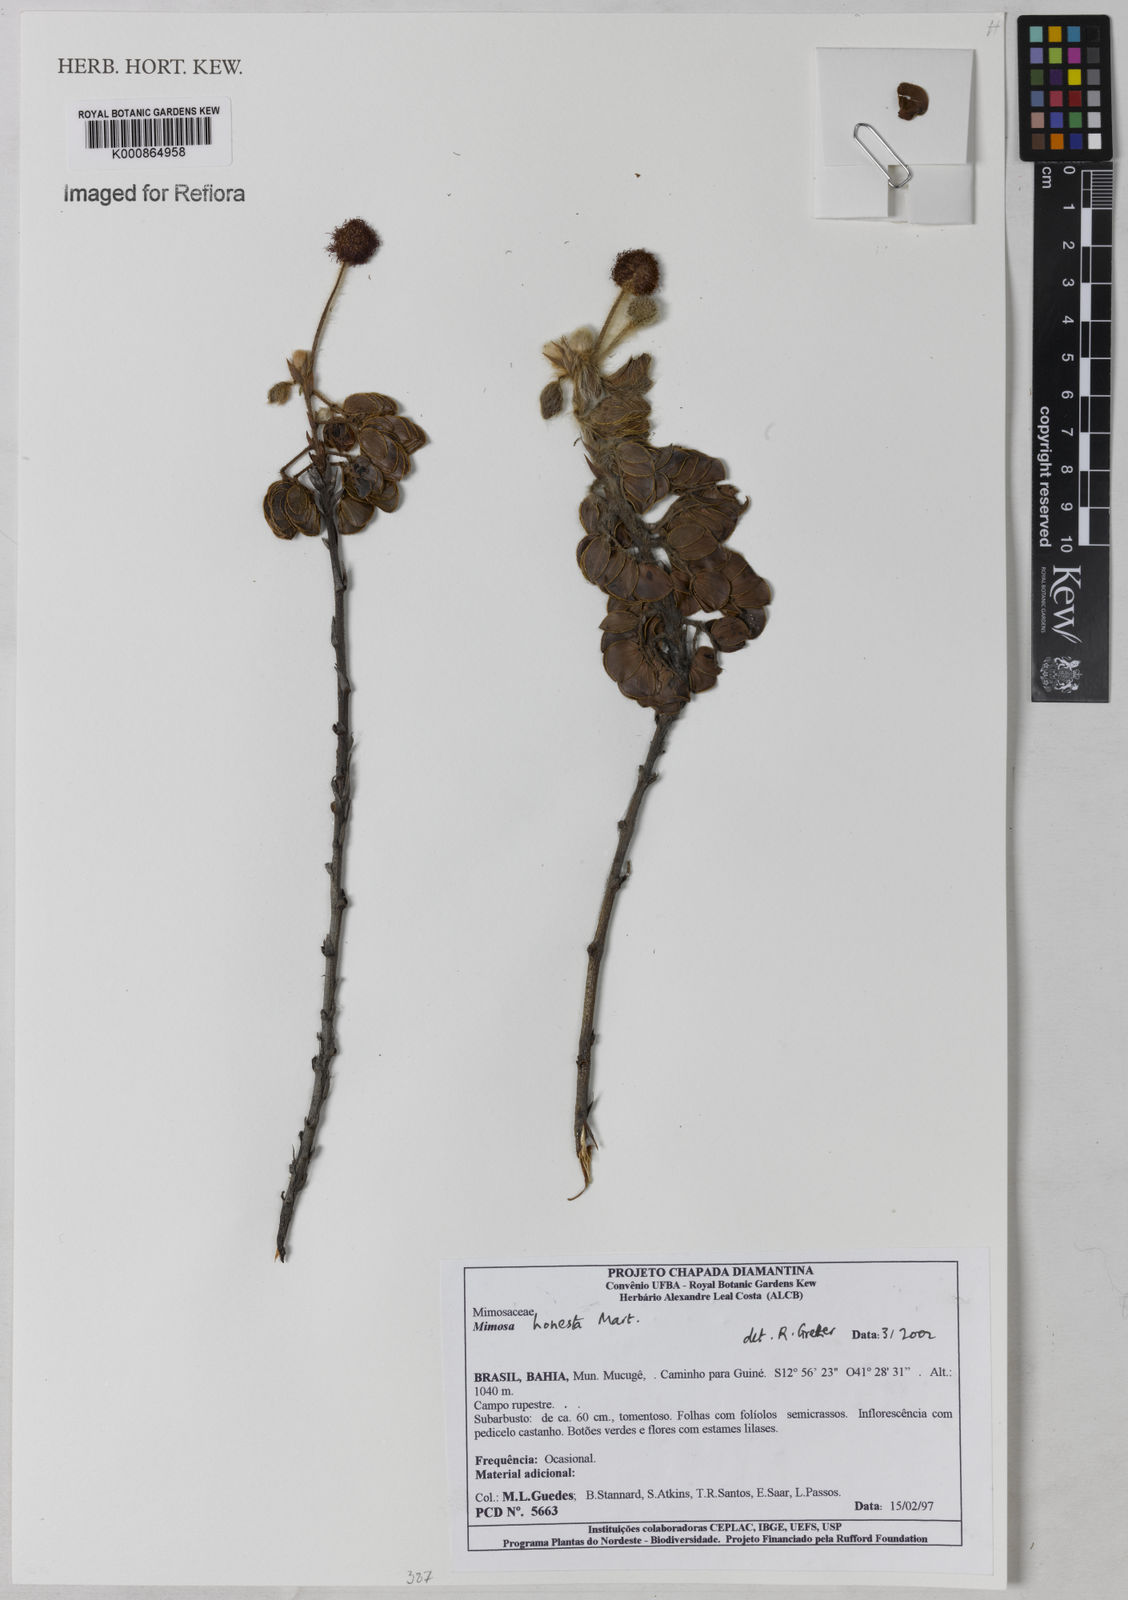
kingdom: Plantae
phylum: Tracheophyta
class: Magnoliopsida
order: Fabales
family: Fabaceae
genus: Mimosa
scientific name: Mimosa honesta
